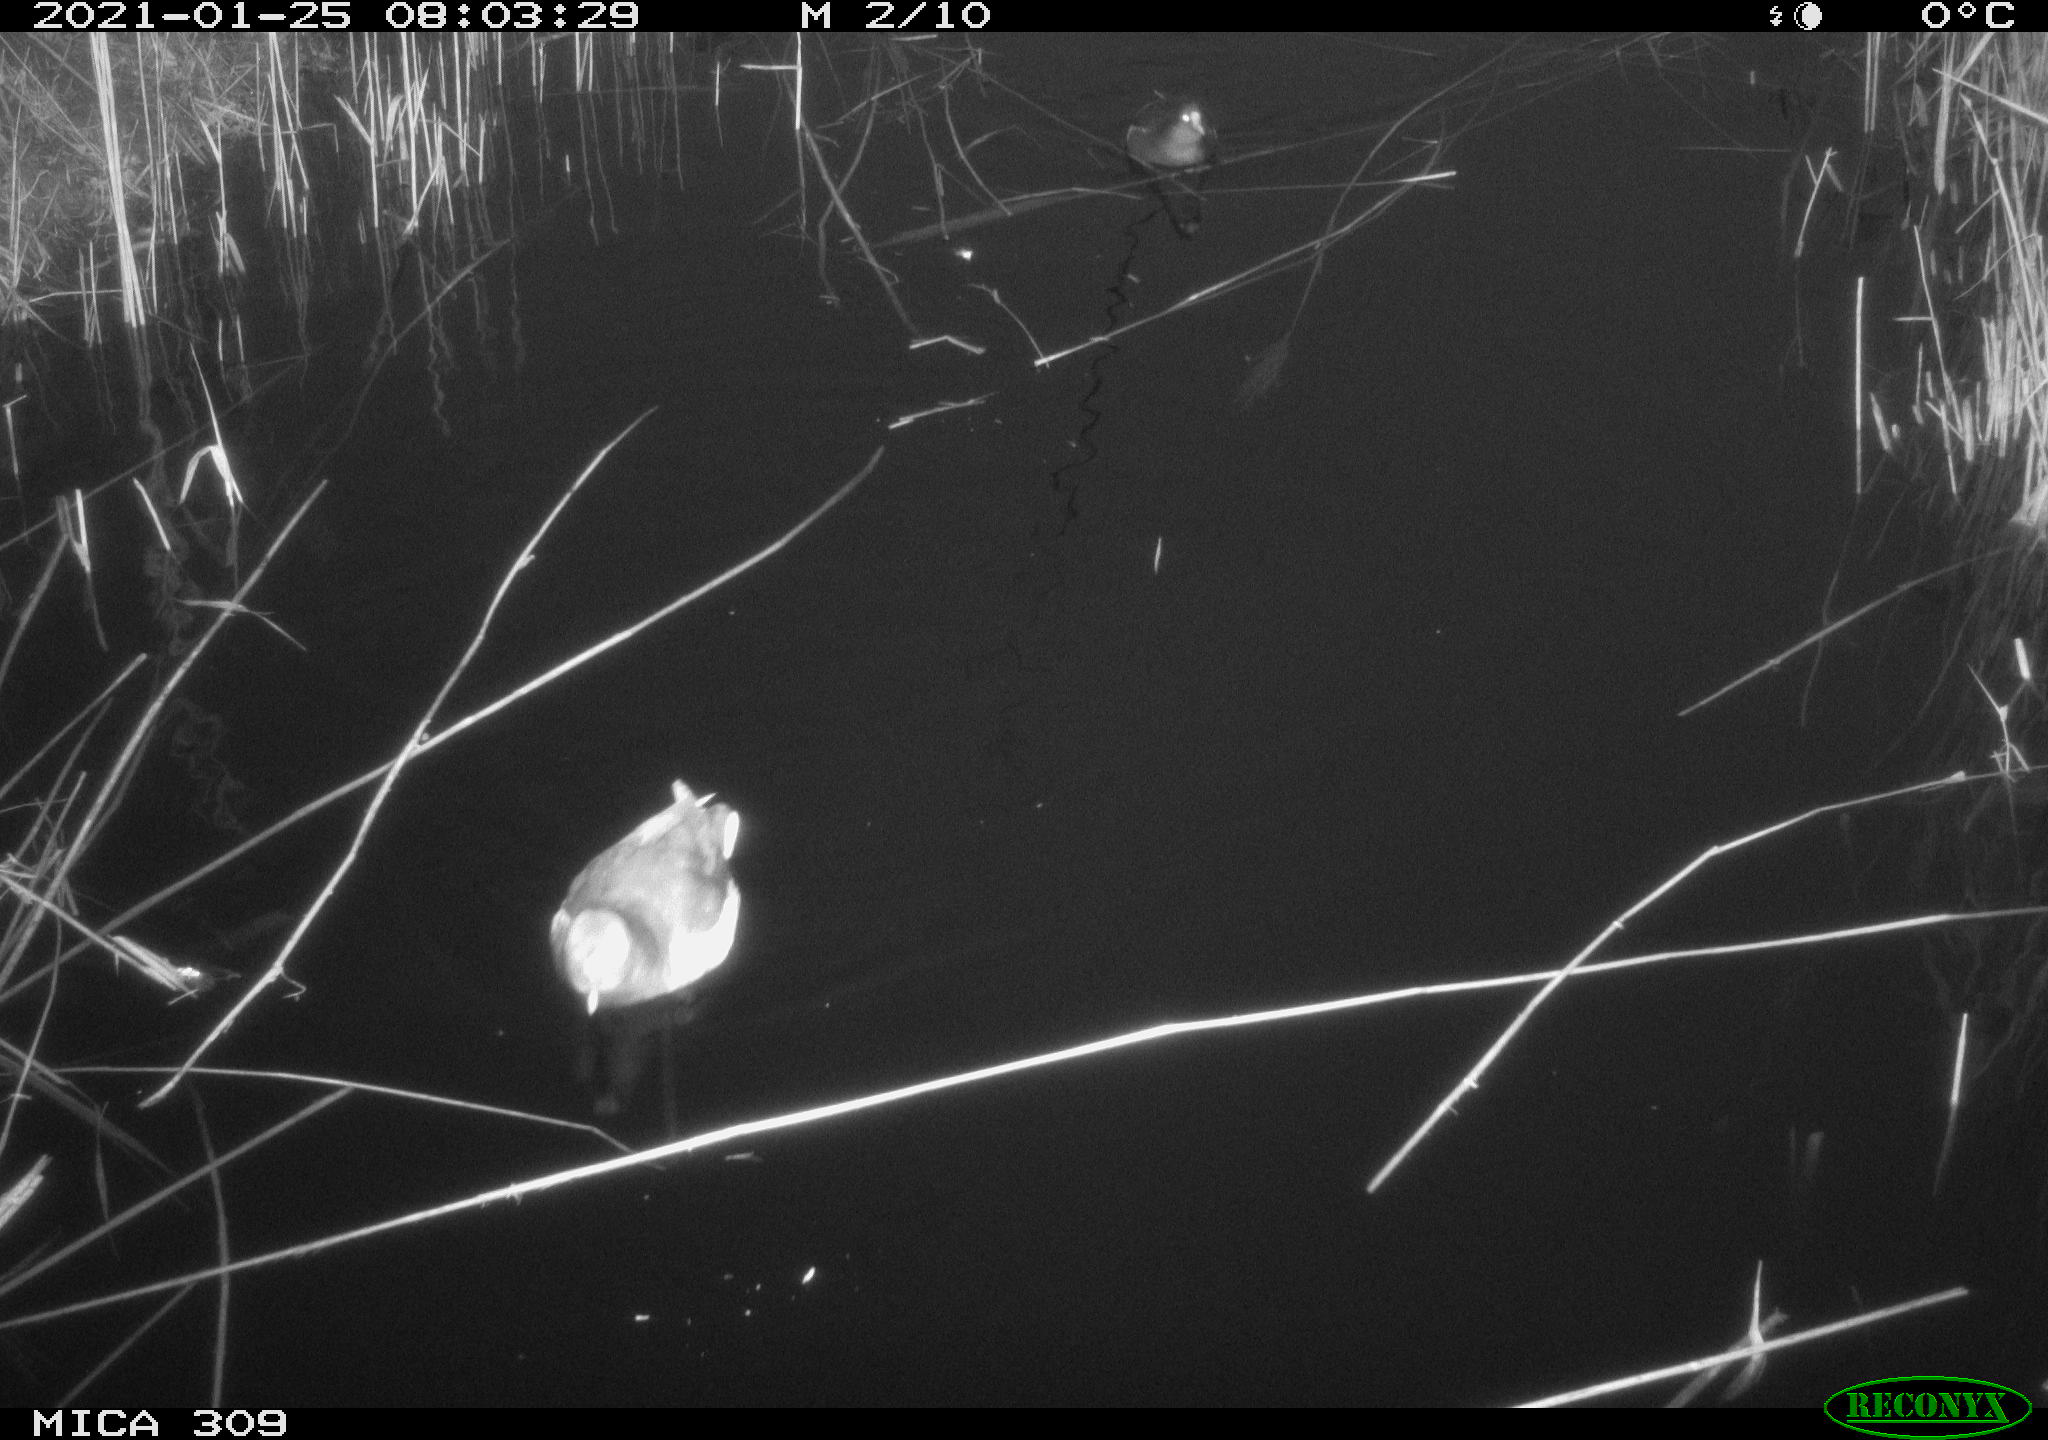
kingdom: Animalia
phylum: Chordata
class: Aves
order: Gruiformes
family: Rallidae
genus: Gallinula
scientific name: Gallinula chloropus
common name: Common moorhen
